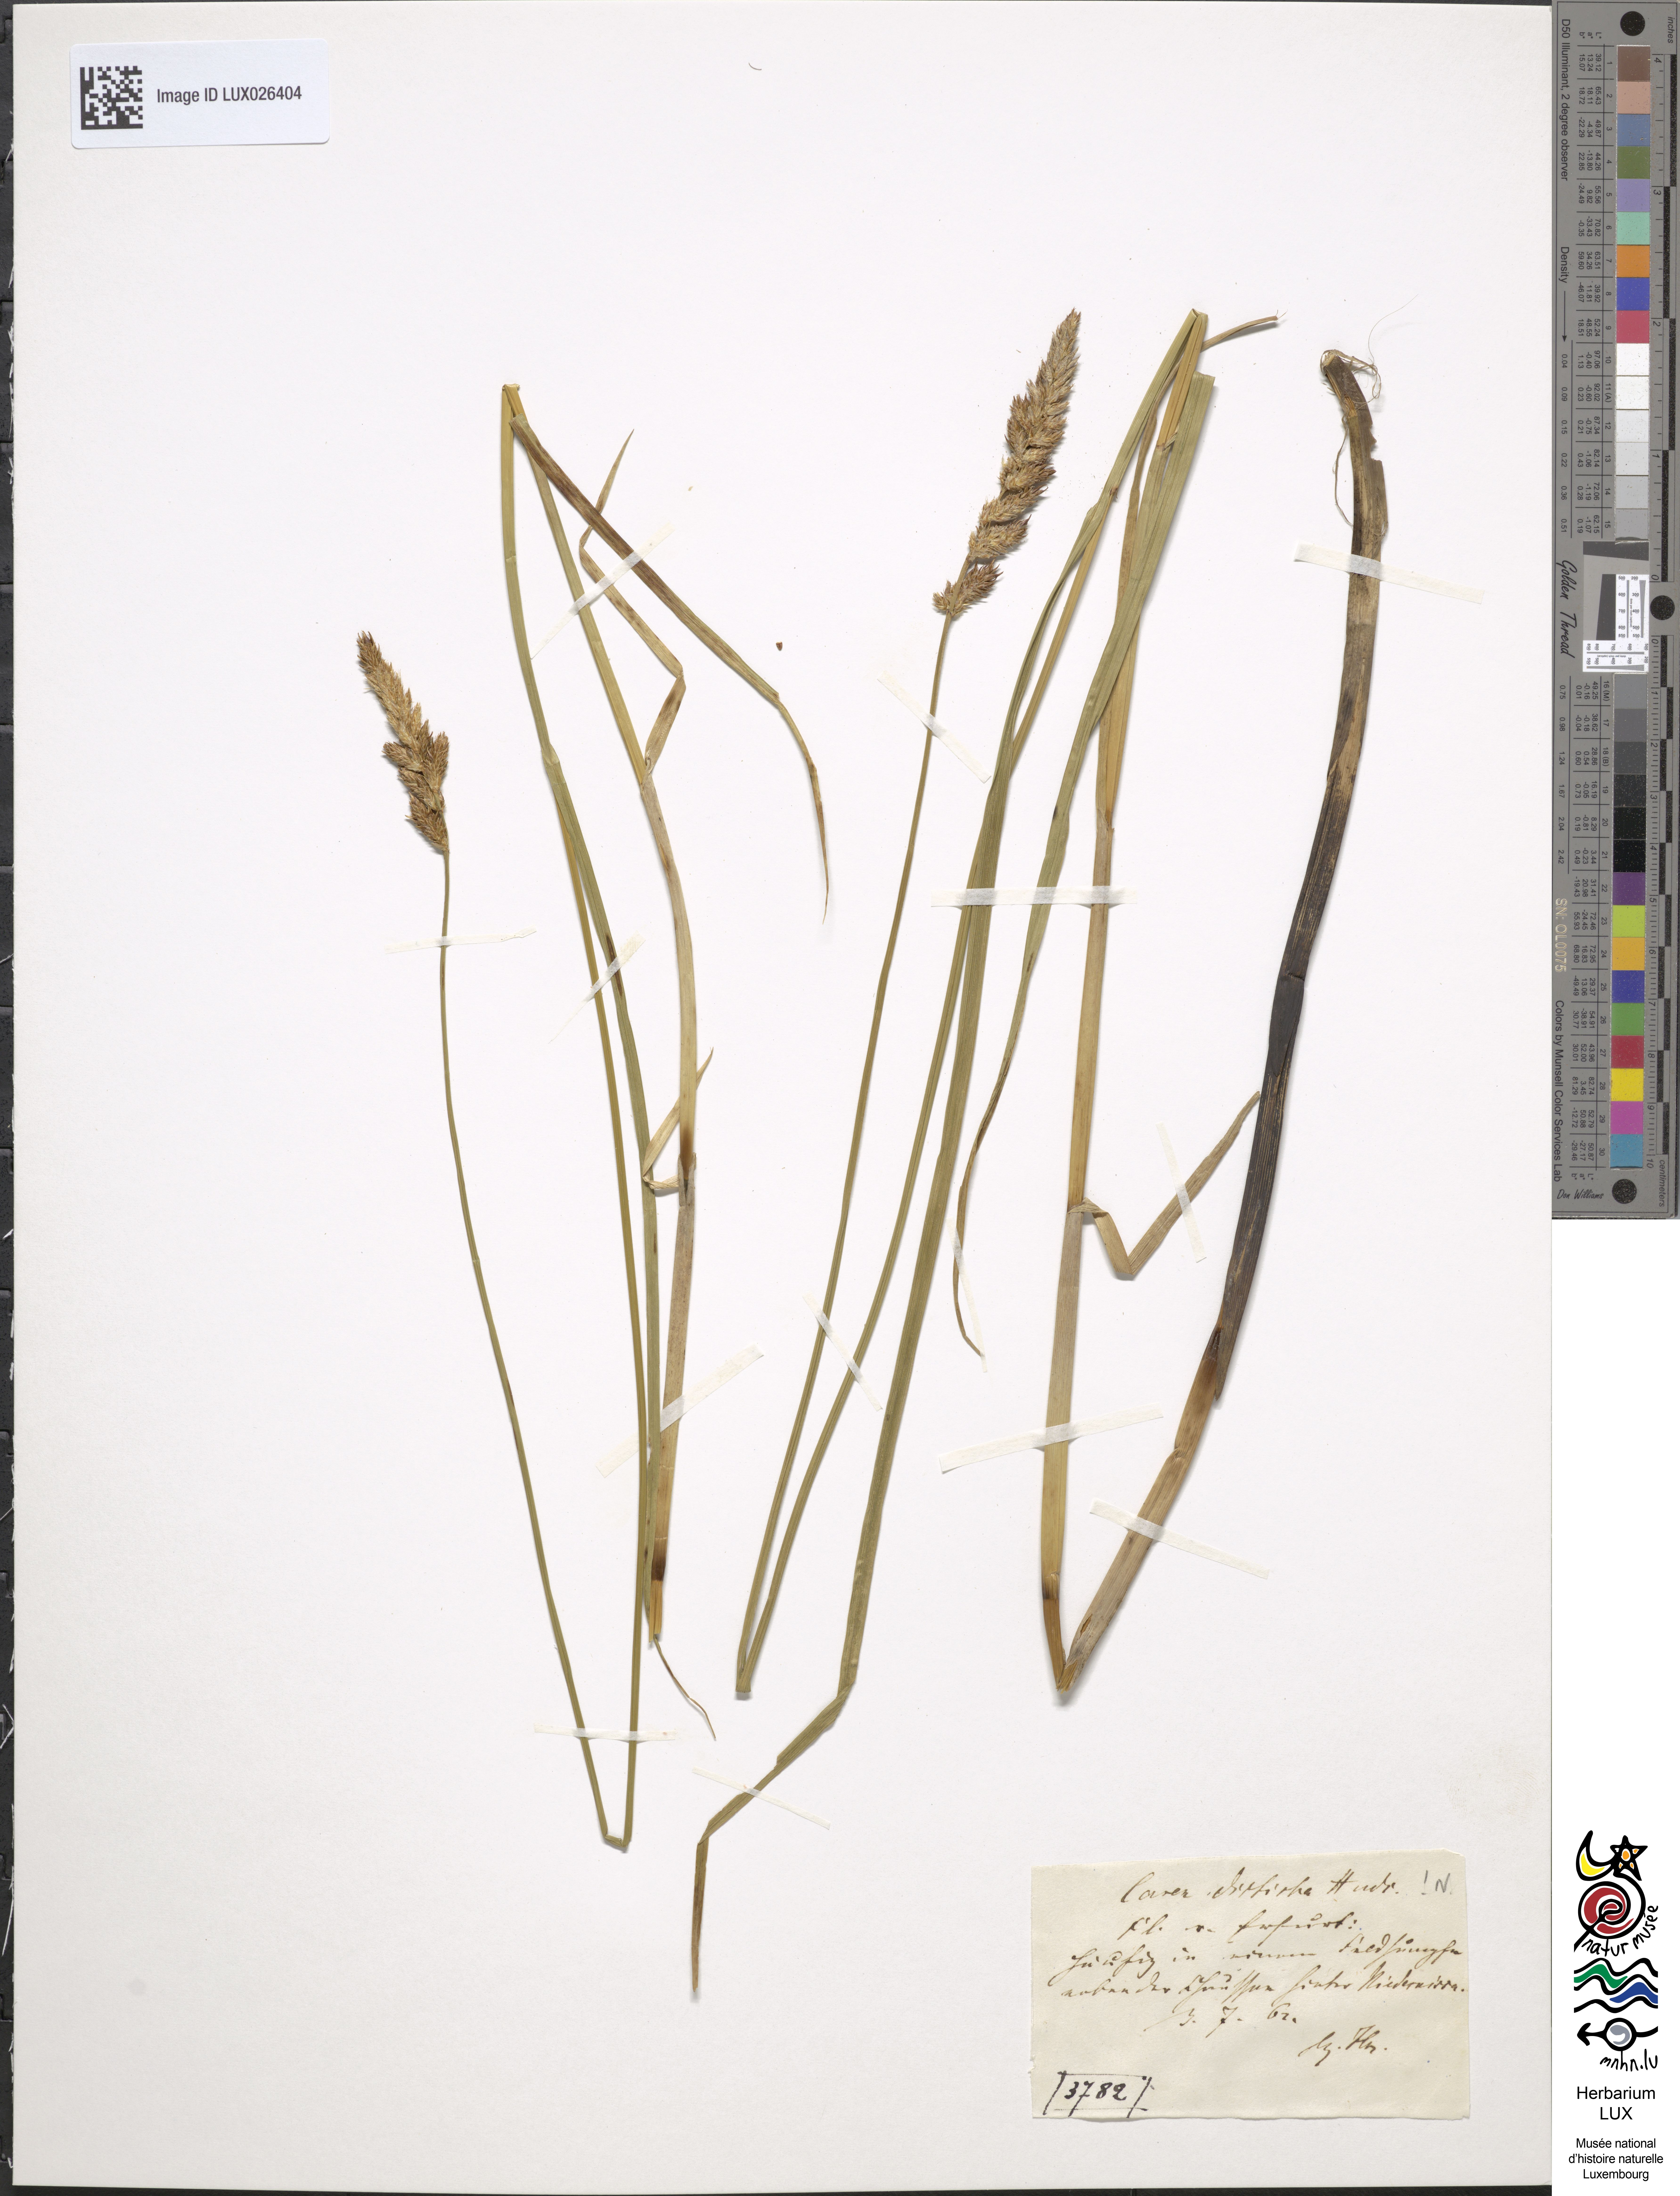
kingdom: Plantae
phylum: Tracheophyta
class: Liliopsida
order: Poales
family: Cyperaceae
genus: Carex
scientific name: Carex disticha
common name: Brown sedge
